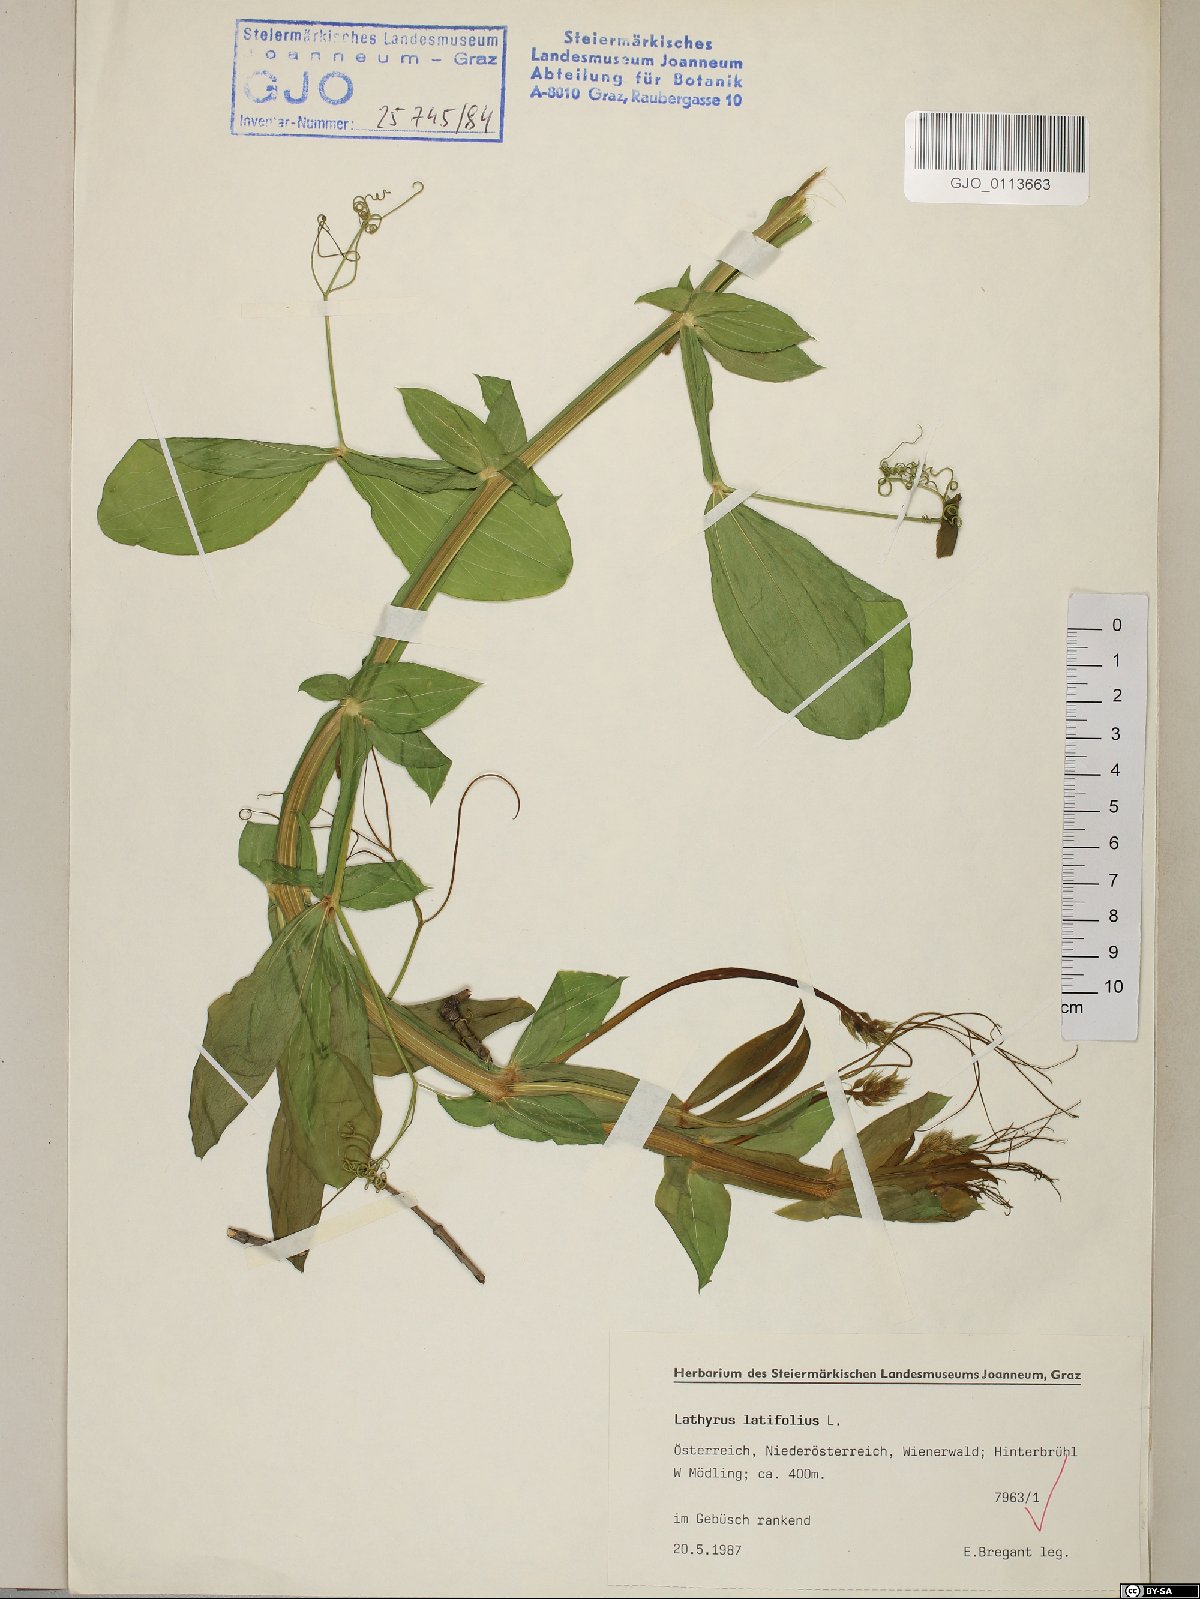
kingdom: Plantae
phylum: Tracheophyta
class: Magnoliopsida
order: Fabales
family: Fabaceae
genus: Lathyrus
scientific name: Lathyrus latifolius
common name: Perennial pea
